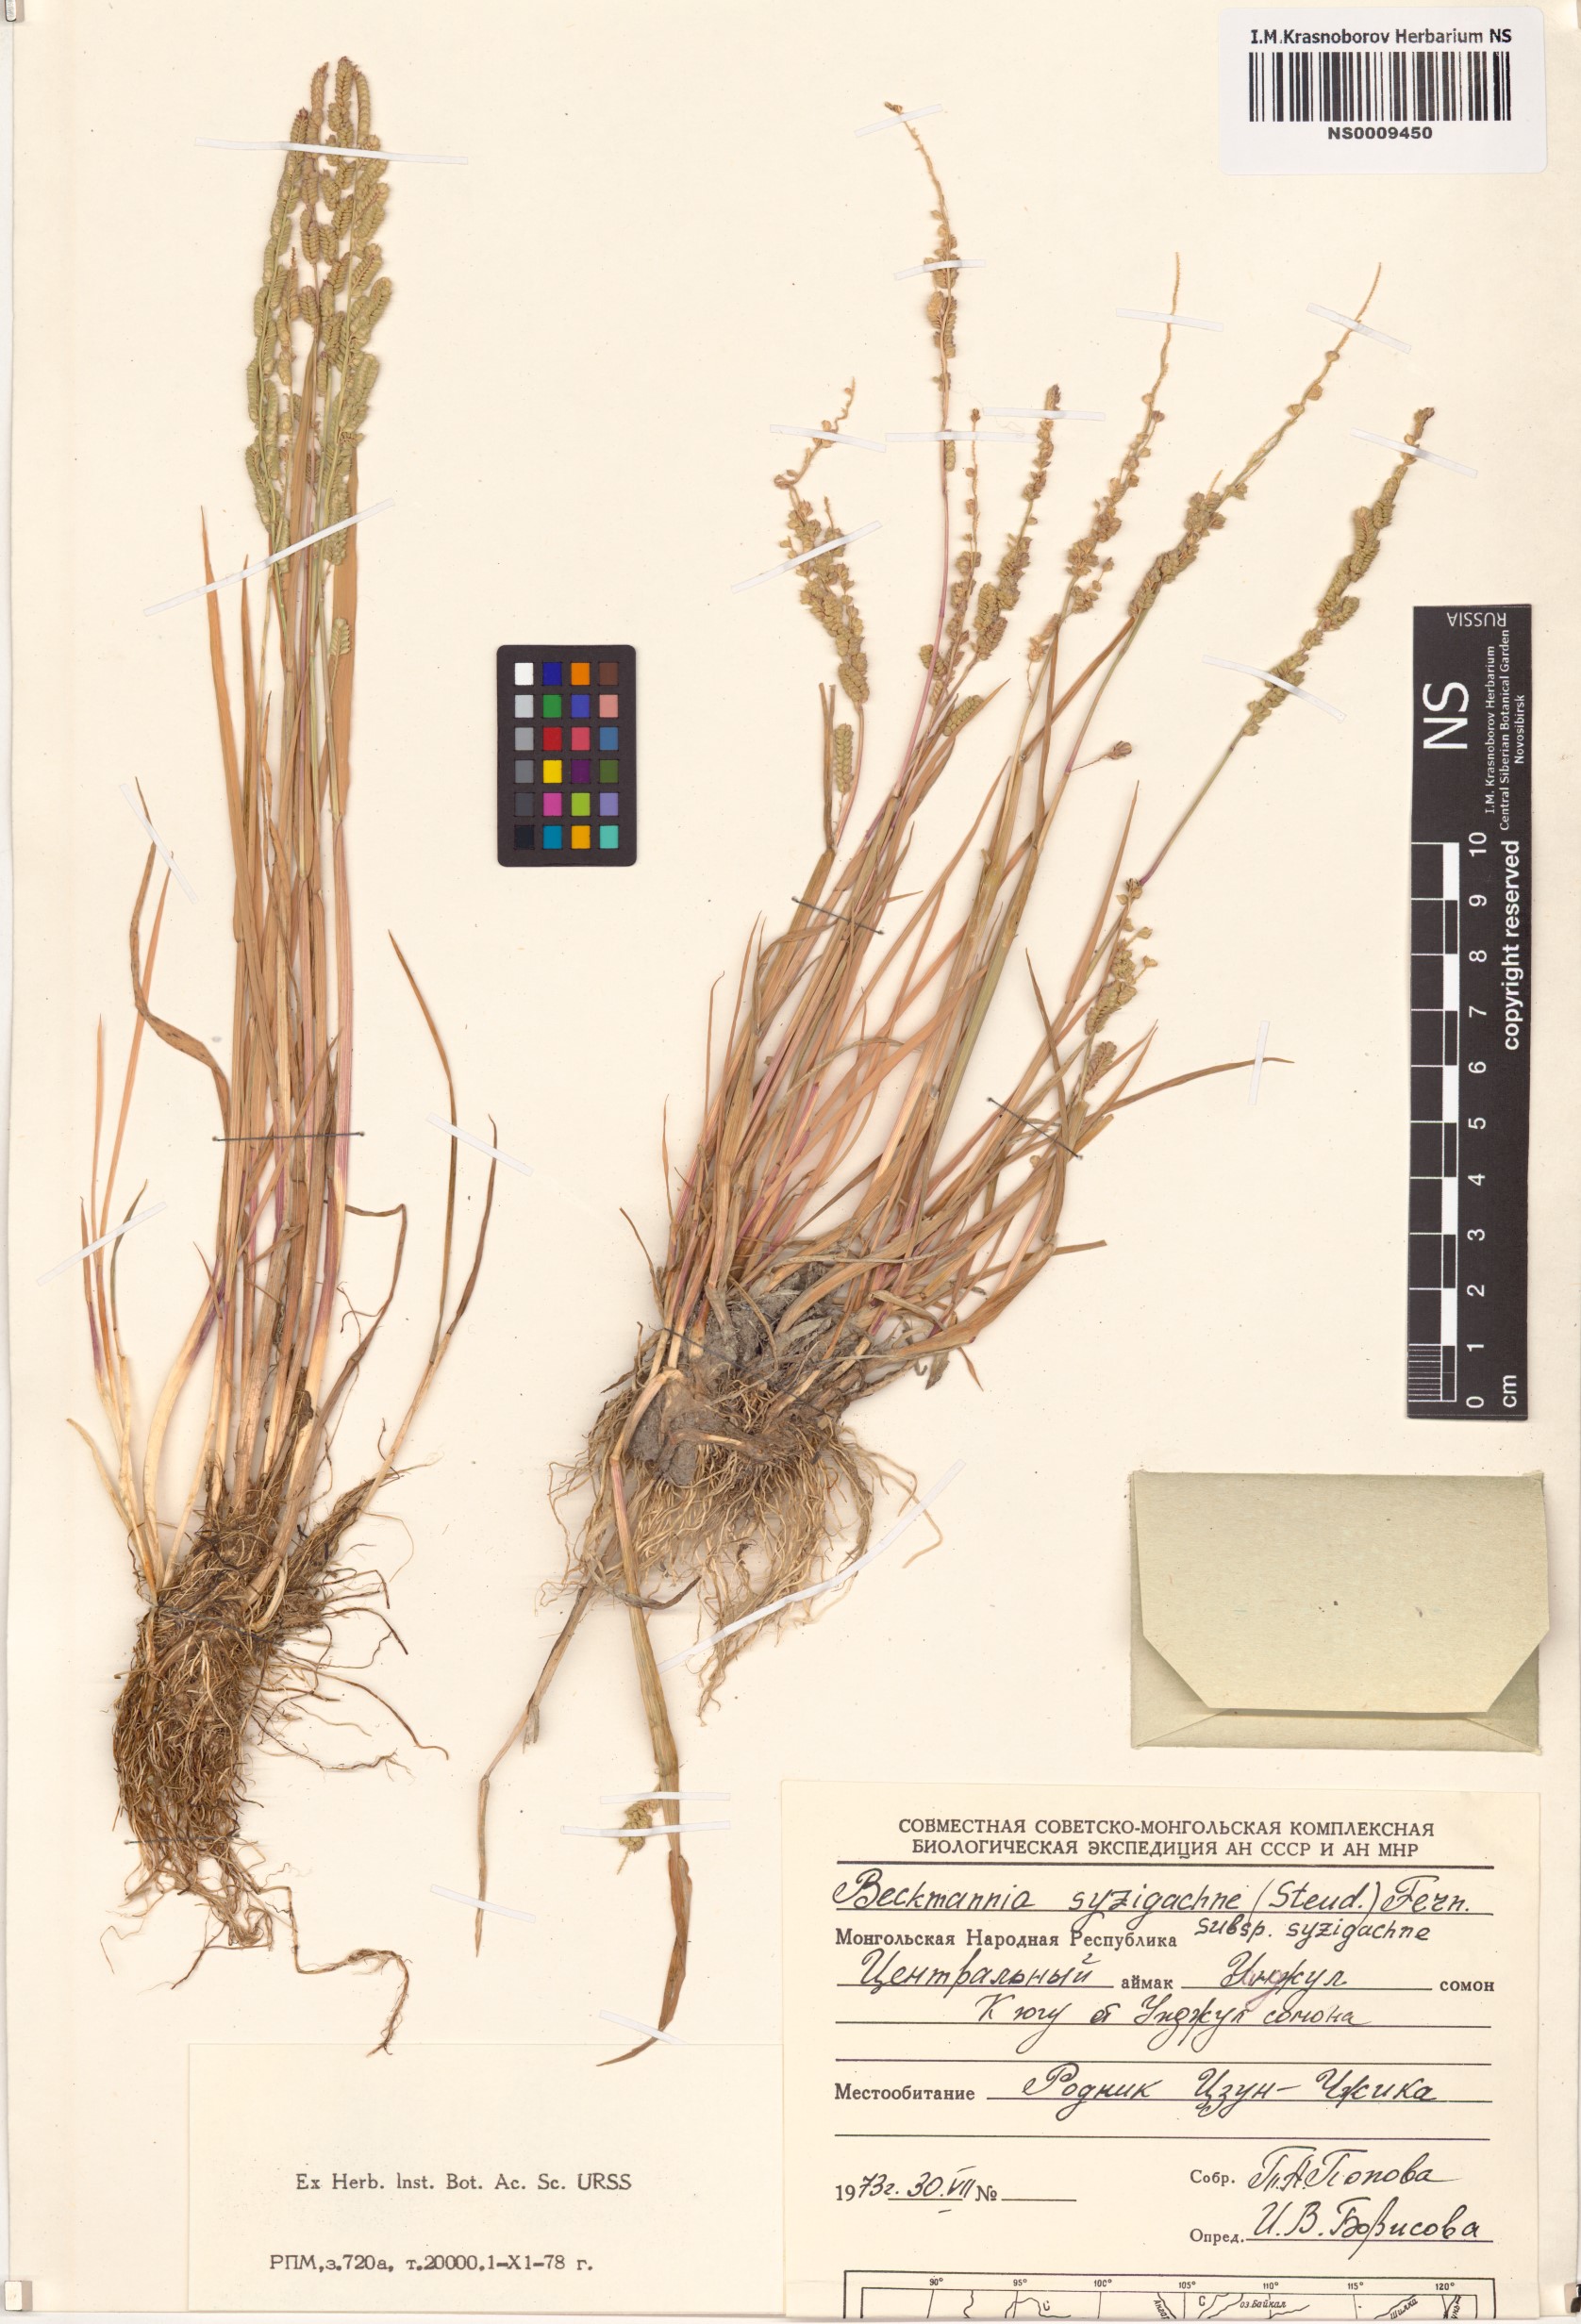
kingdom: Plantae
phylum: Tracheophyta
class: Liliopsida
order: Poales
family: Poaceae
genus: Beckmannia
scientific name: Beckmannia syzigachne
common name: American slough-grass
